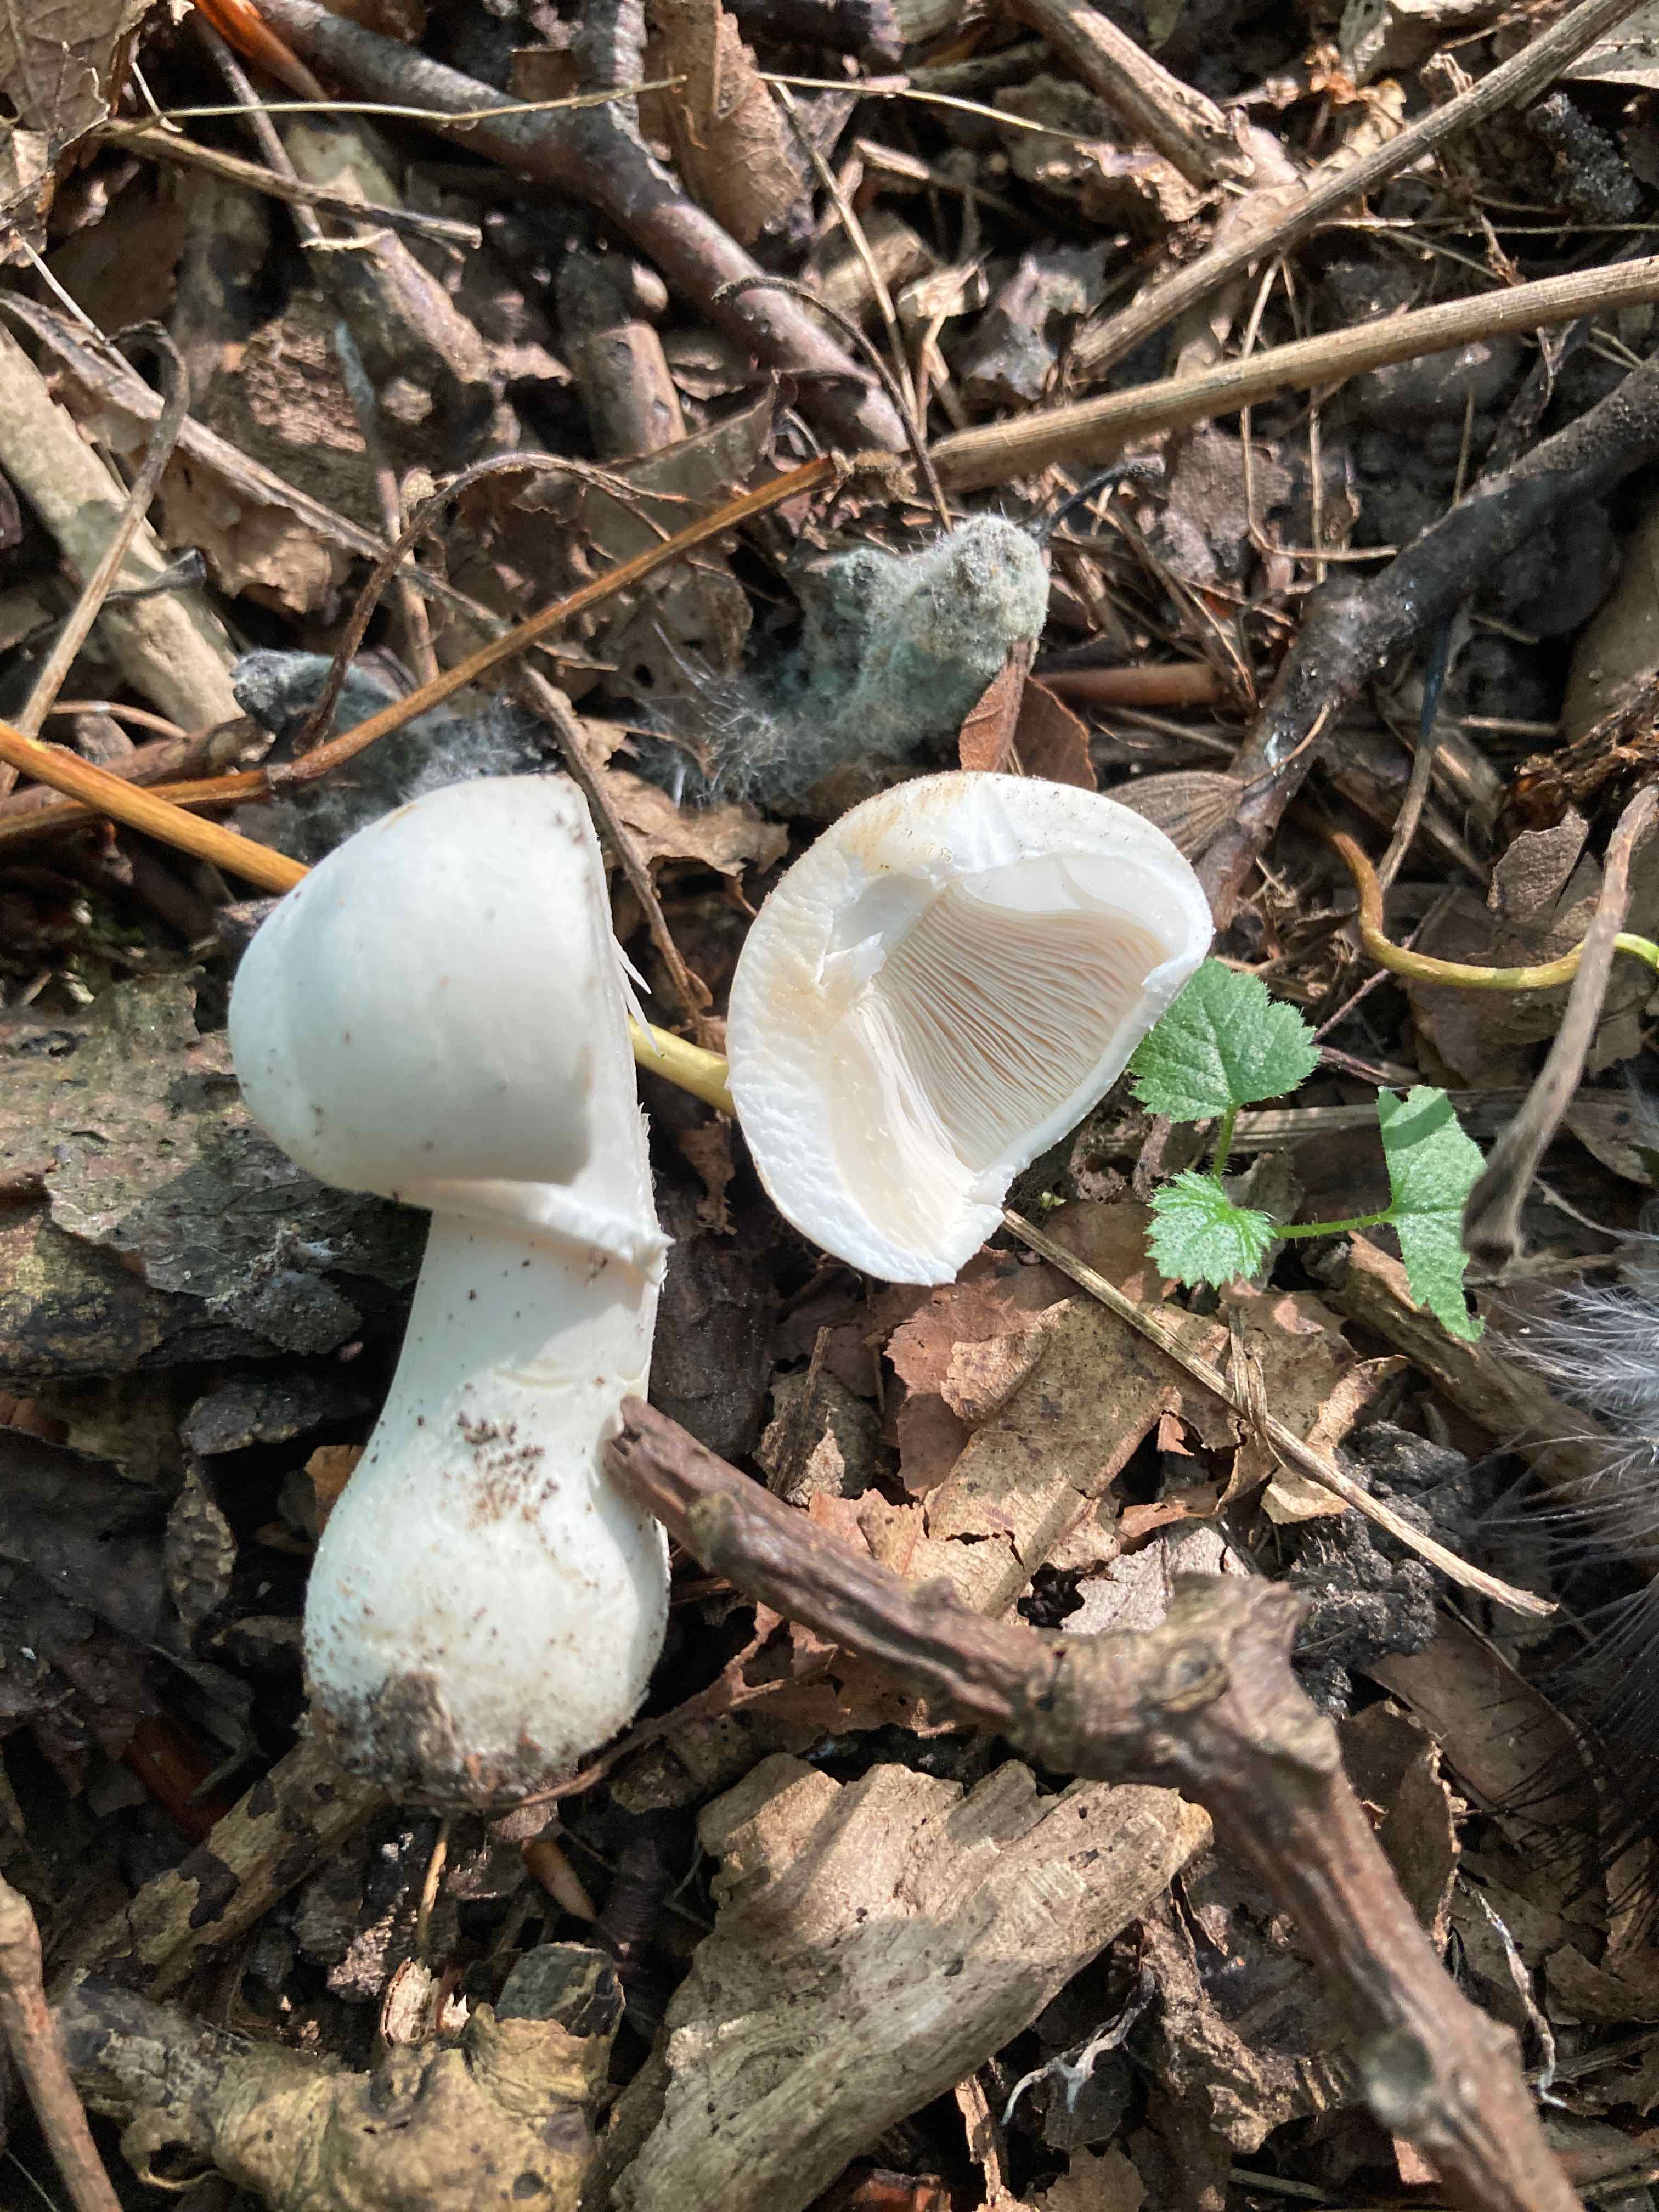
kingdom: Fungi
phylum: Basidiomycota
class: Agaricomycetes
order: Agaricales
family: Agaricaceae
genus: Leucoagaricus
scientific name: Leucoagaricus leucothites
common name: rosabladet silkehat
